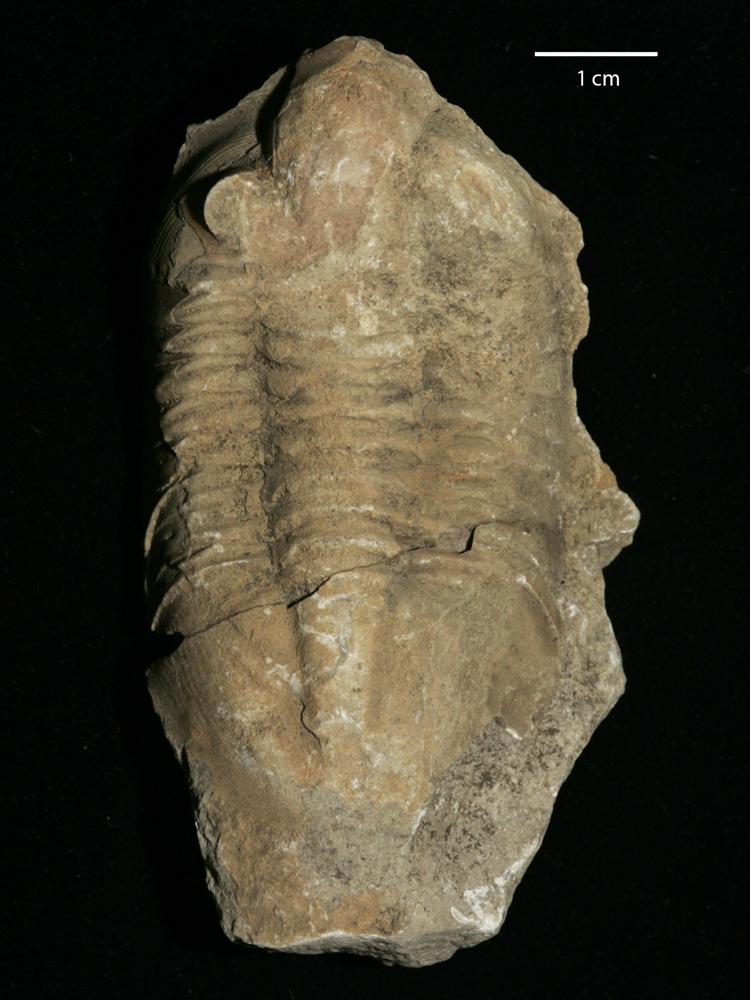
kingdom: Animalia
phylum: Arthropoda
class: Trilobita
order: Asaphida
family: Asaphidae
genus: Pseudasaphus
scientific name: Pseudasaphus globifrons
